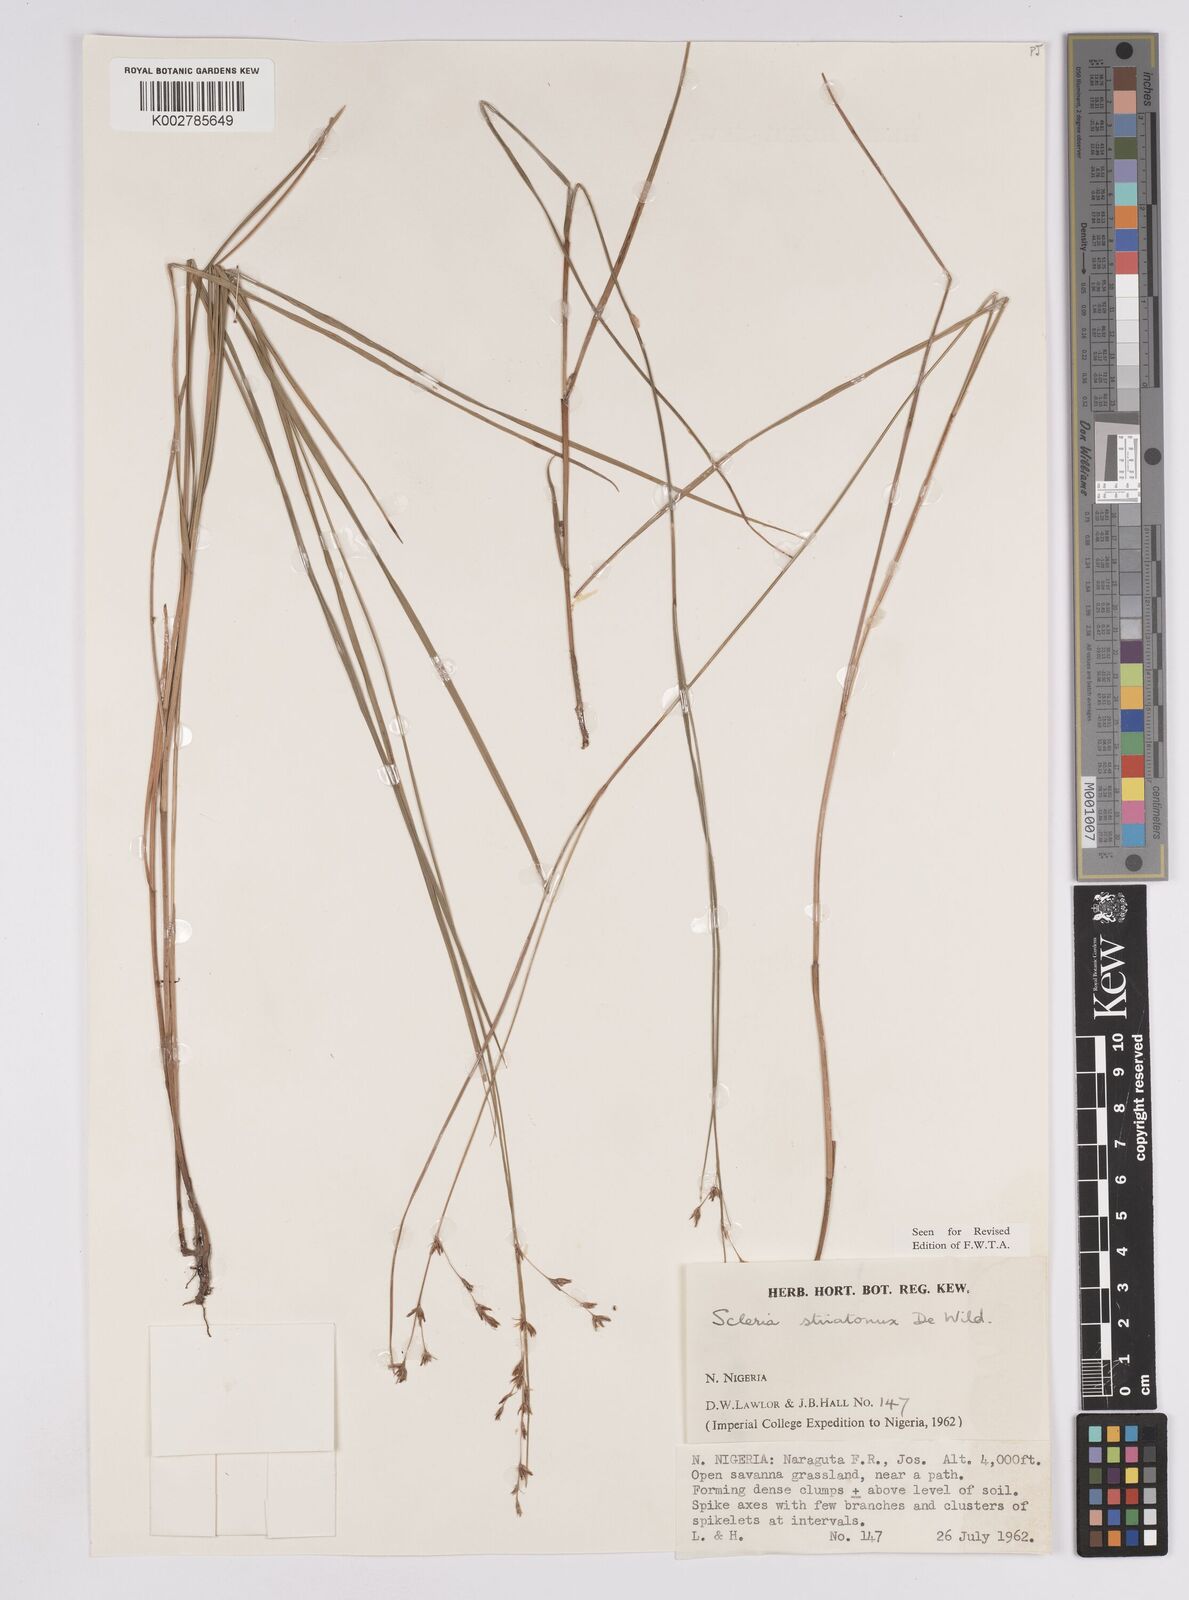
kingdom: Plantae
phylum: Tracheophyta
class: Liliopsida
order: Poales
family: Cyperaceae
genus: Scleria
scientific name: Scleria woodii
